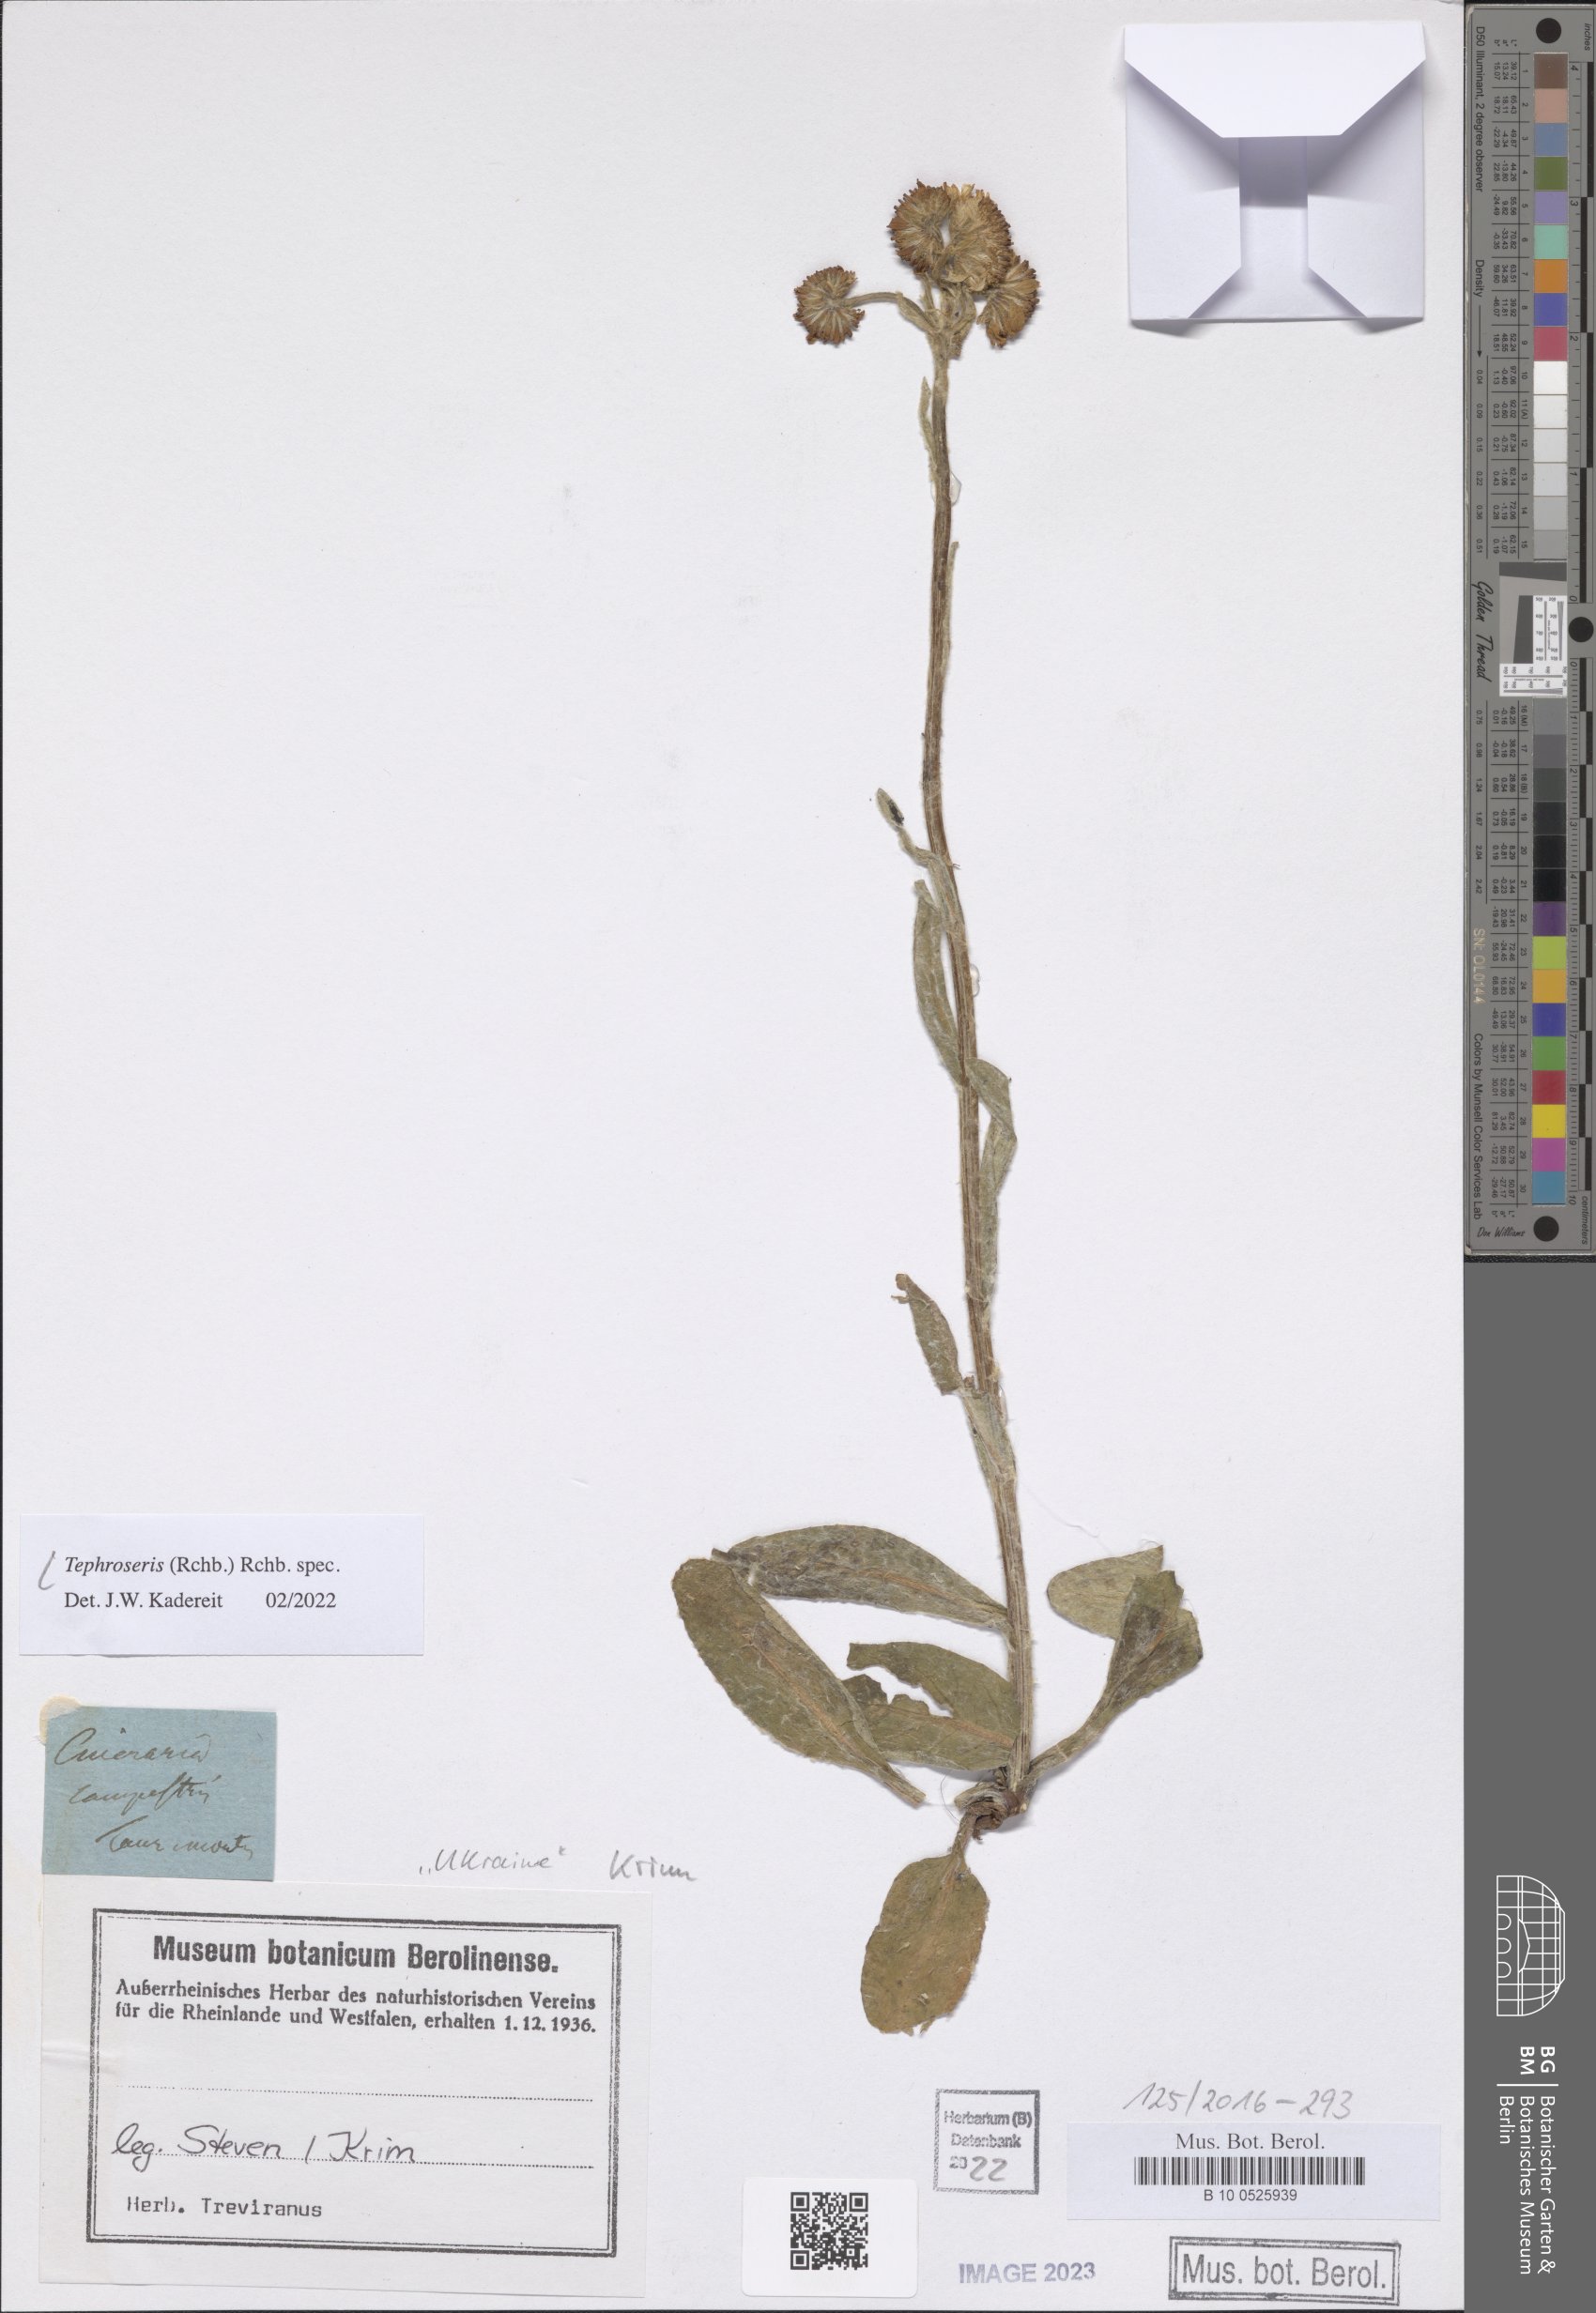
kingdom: Plantae
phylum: Tracheophyta
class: Magnoliopsida
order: Asterales
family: Asteraceae
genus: Tephroseris
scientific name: Tephroseris
